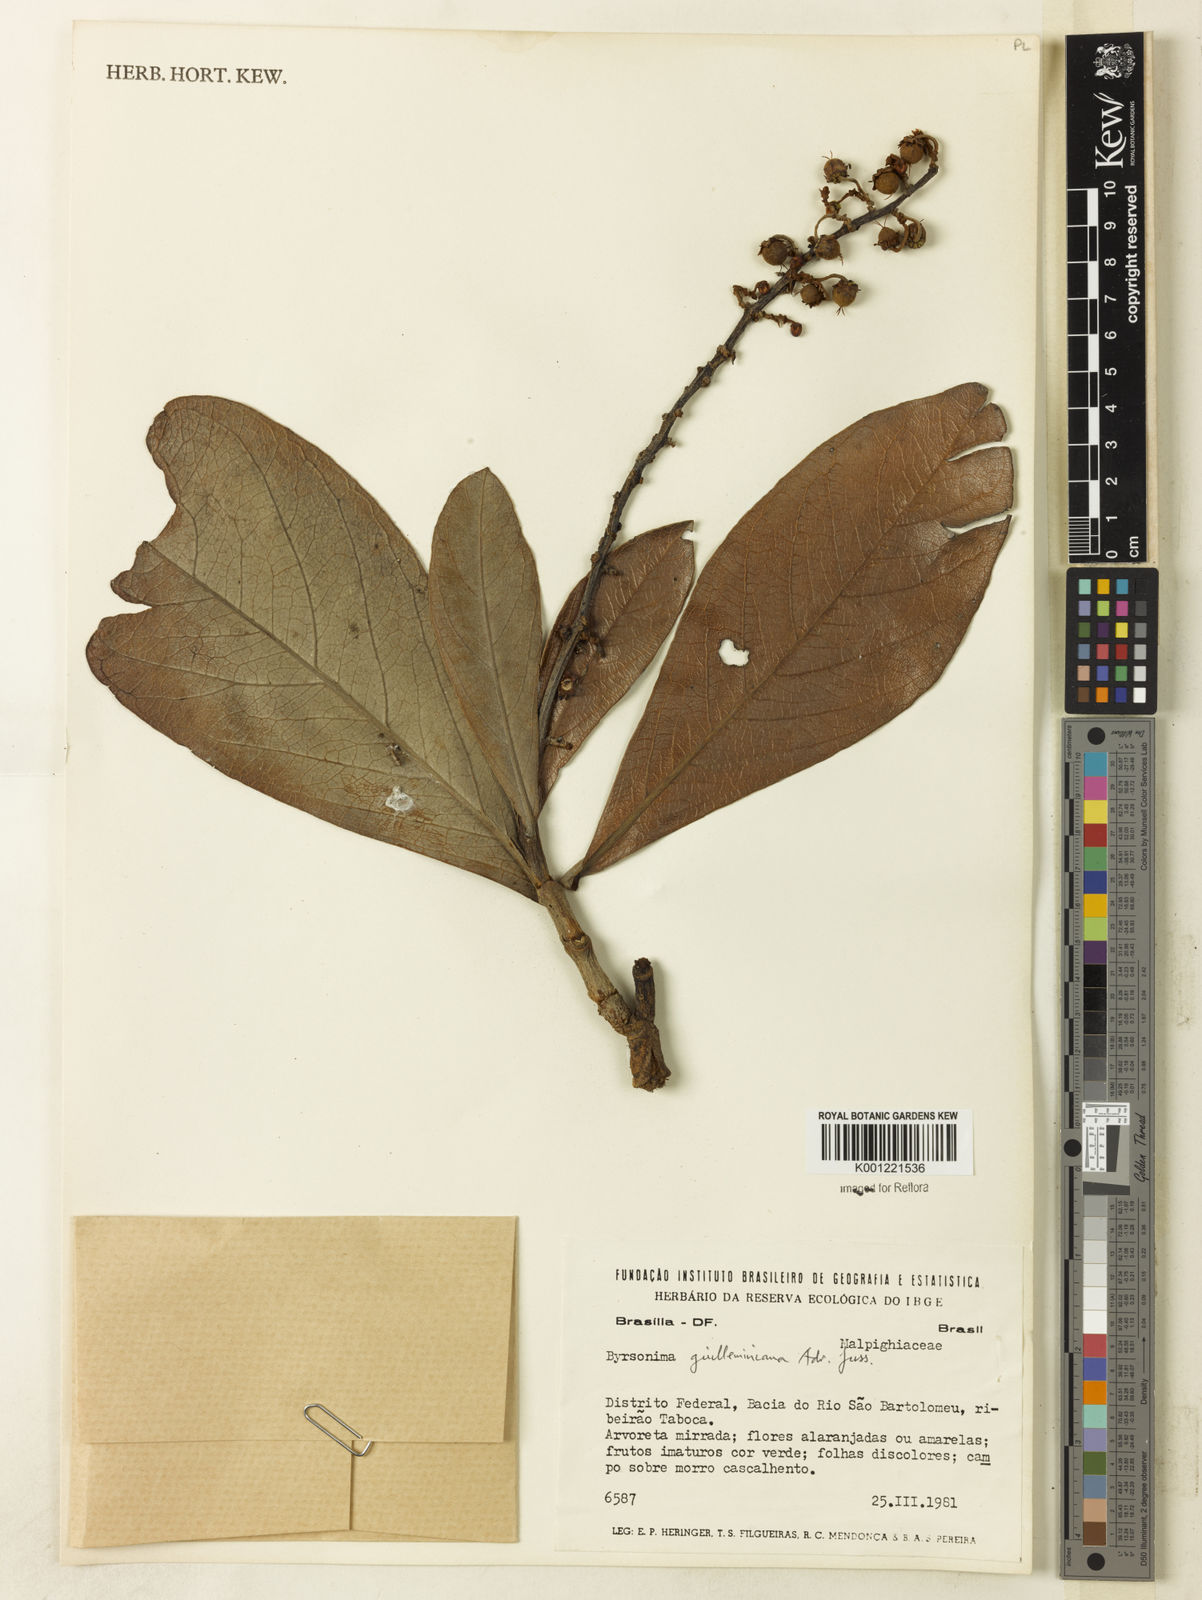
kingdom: Plantae
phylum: Tracheophyta
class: Magnoliopsida
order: Malpighiales
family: Malpighiaceae
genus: Byrsonima
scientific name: Byrsonima guilleminiana
